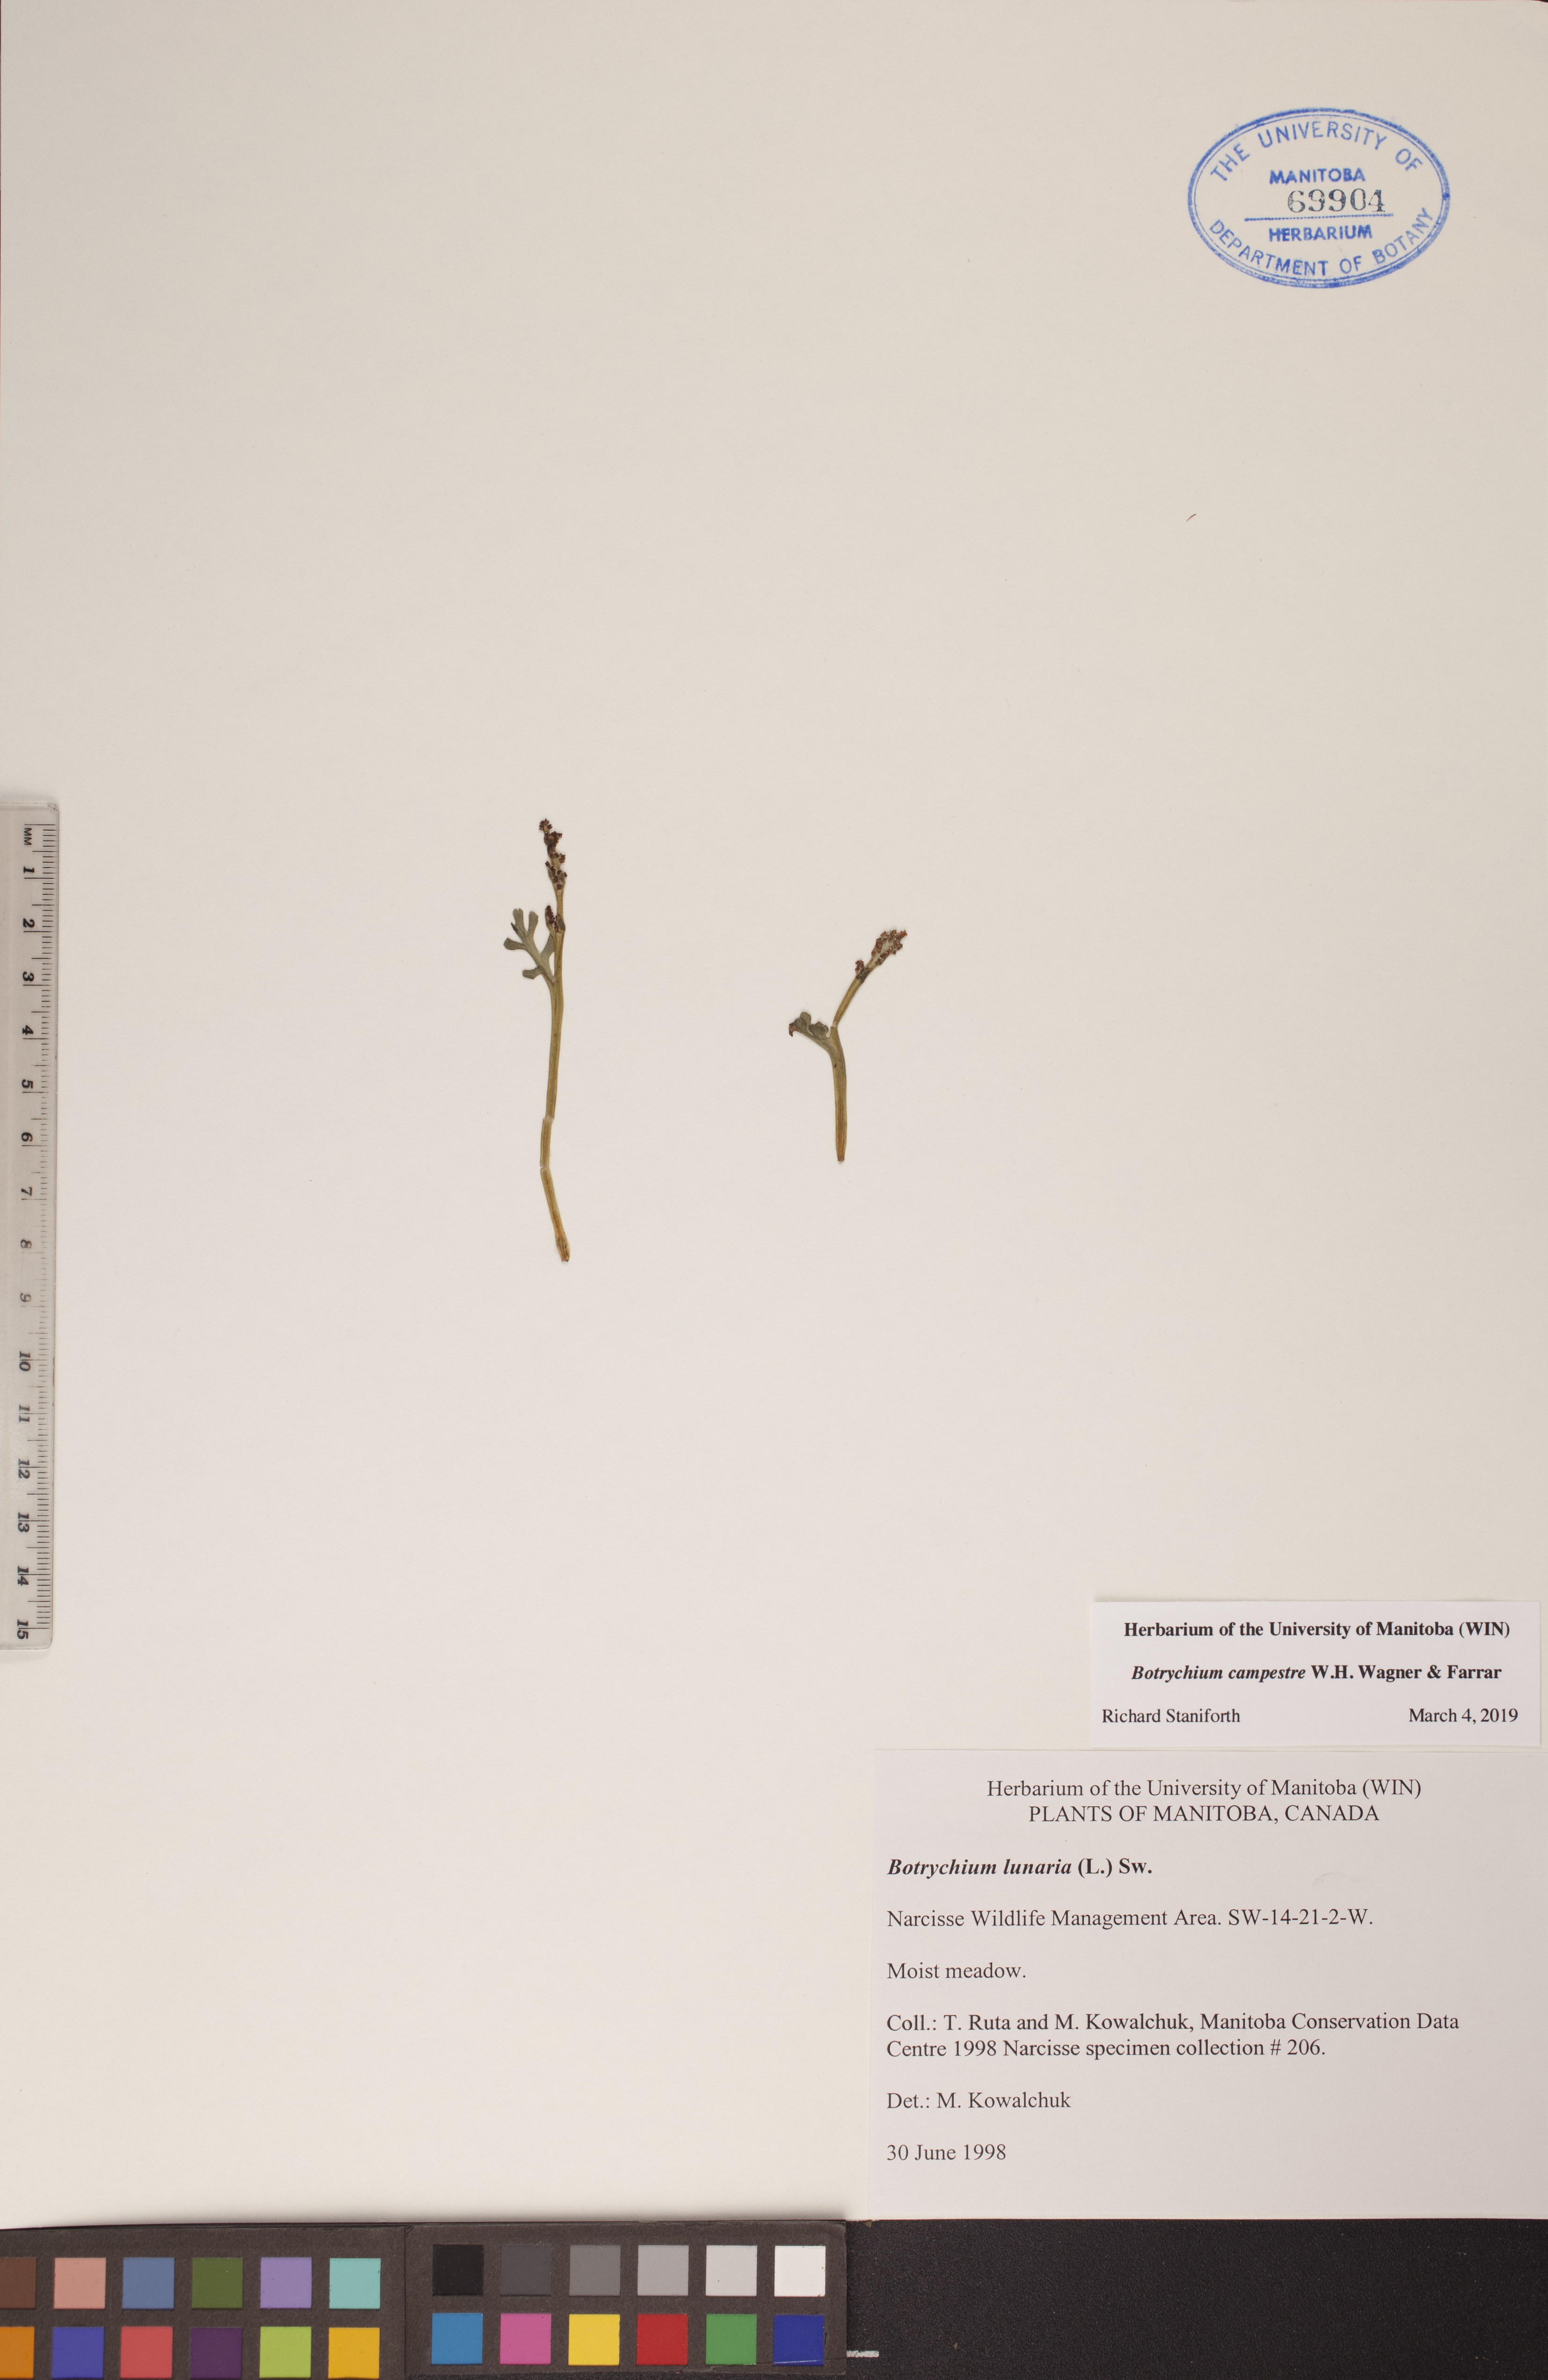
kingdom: Plantae
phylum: Tracheophyta
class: Polypodiopsida
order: Ophioglossales
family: Ophioglossaceae
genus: Botrychium
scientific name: Botrychium campestre
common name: Prairie moonwort
